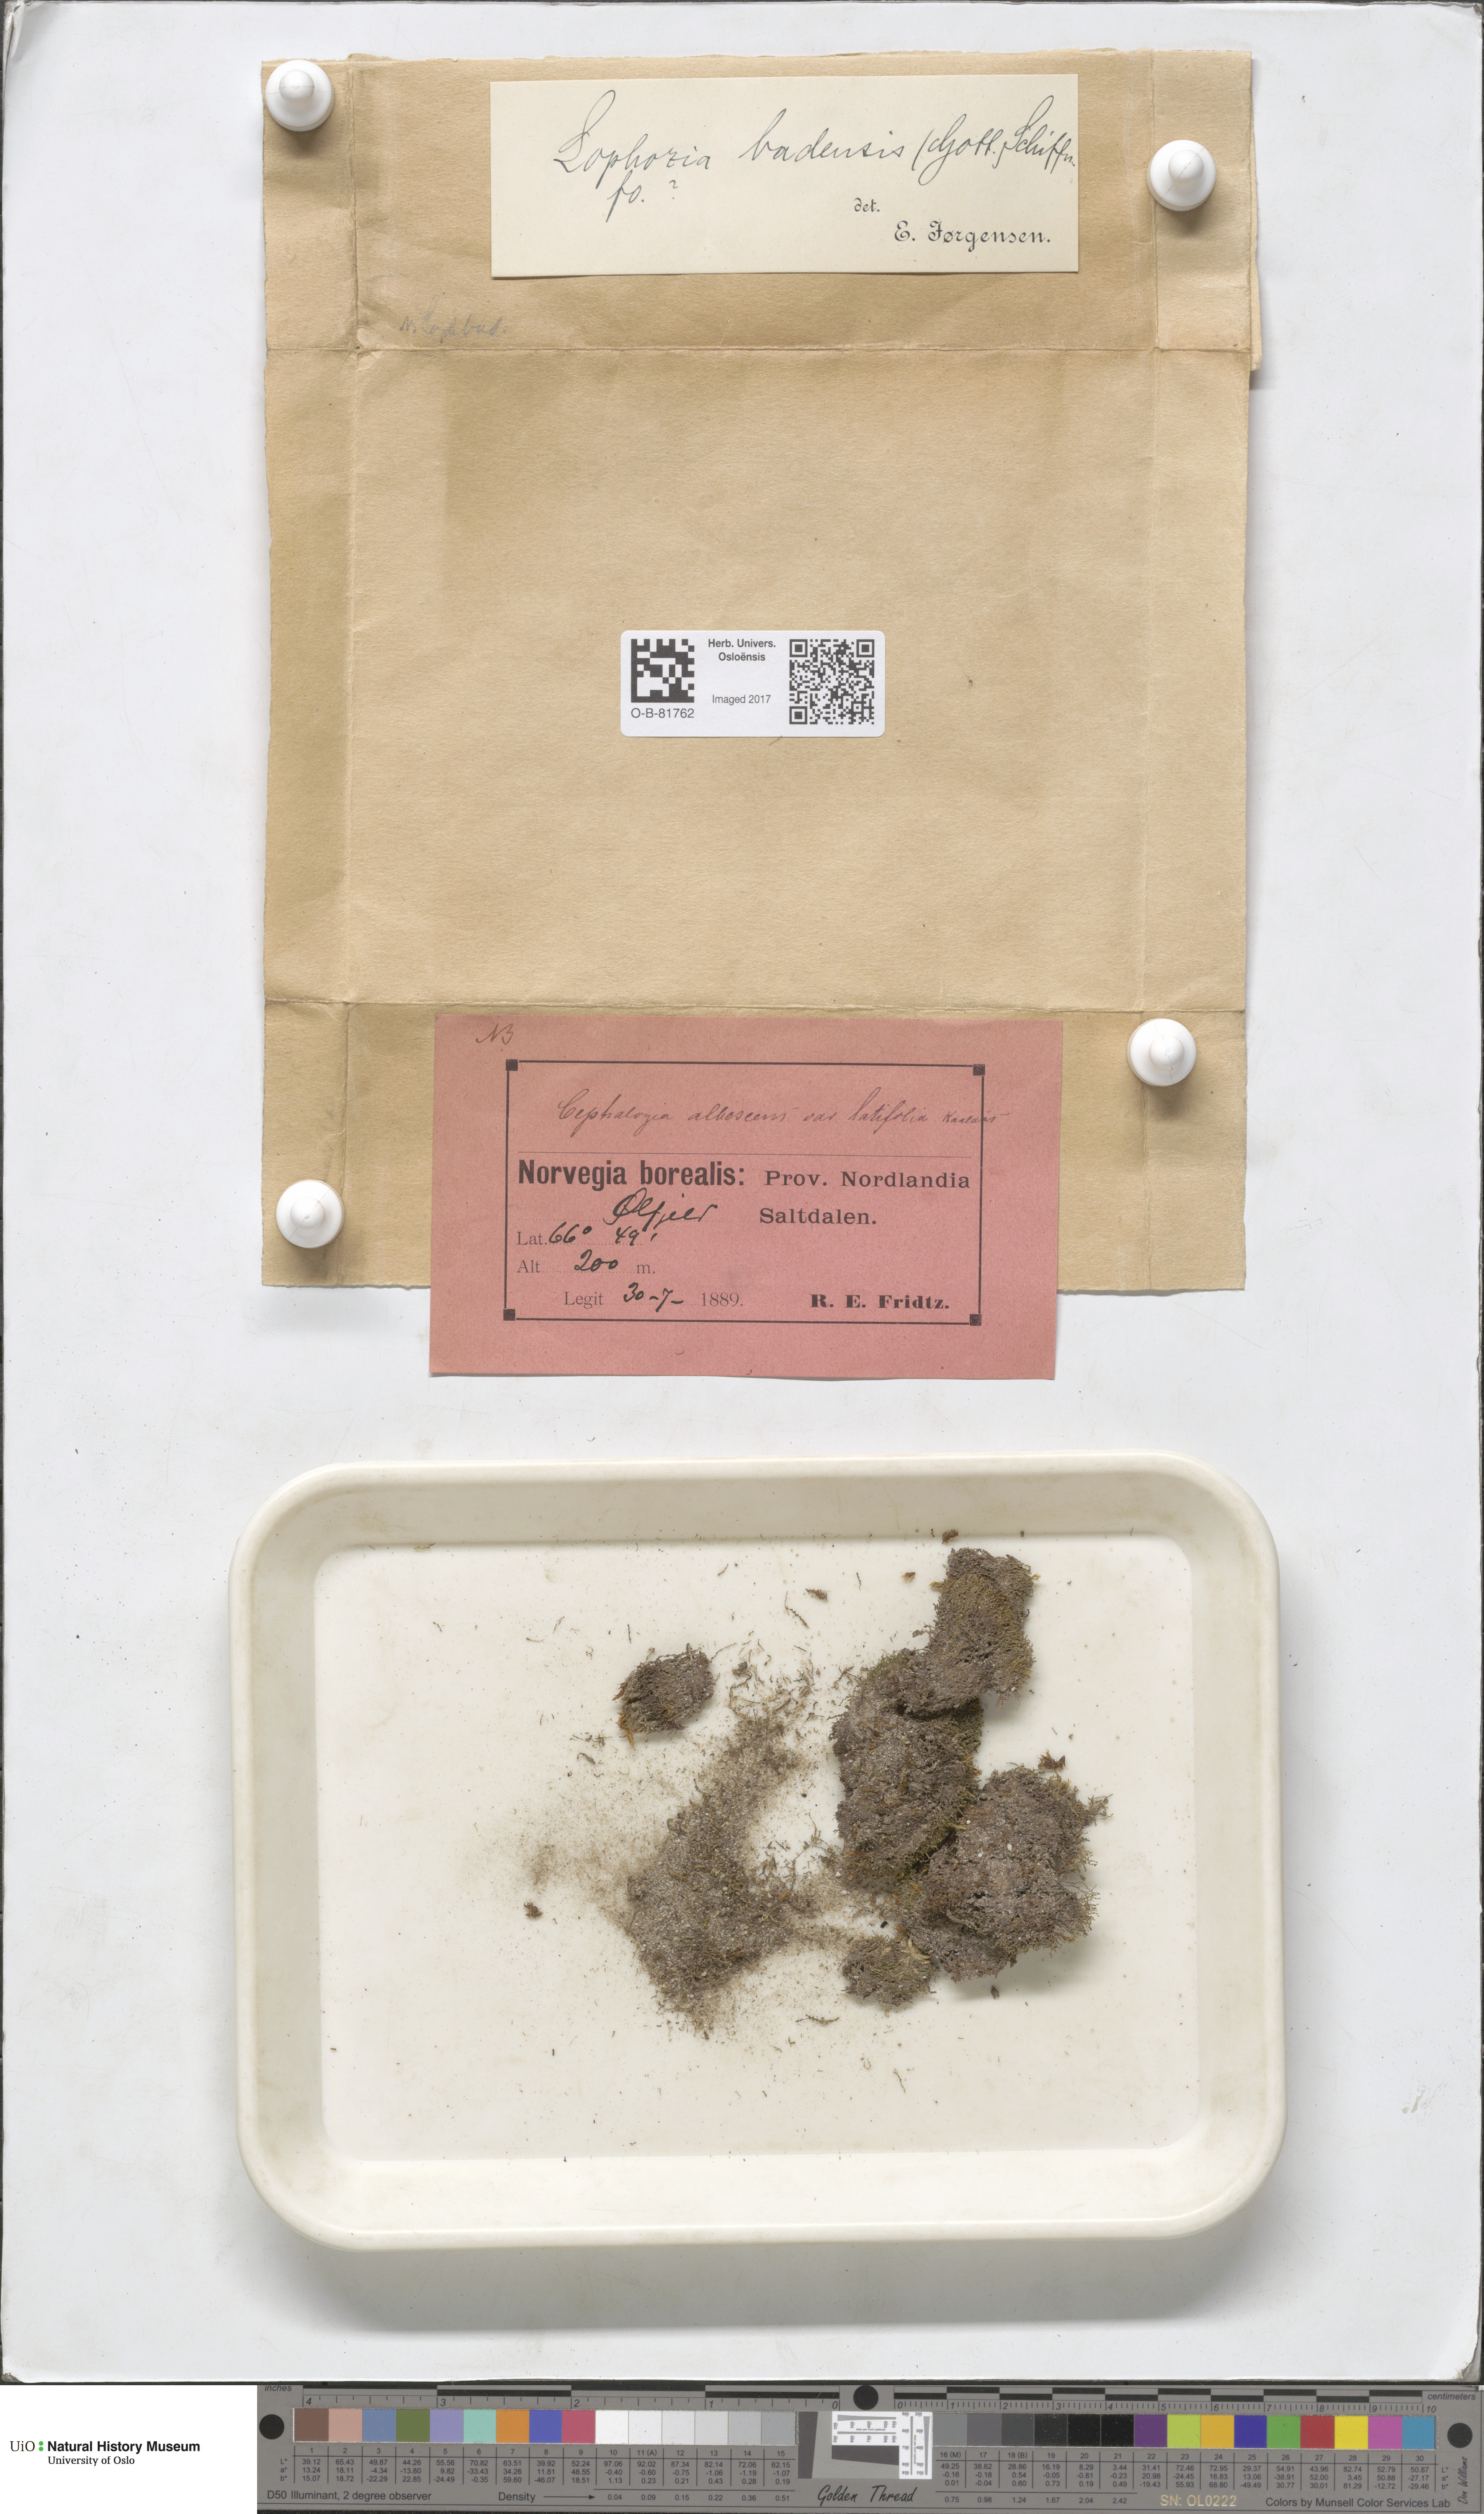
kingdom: Plantae
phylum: Marchantiophyta
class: Jungermanniopsida
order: Jungermanniales
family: Jungermanniaceae
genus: Mesoptychia
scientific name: Mesoptychia badensis
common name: Scarce notchwort
